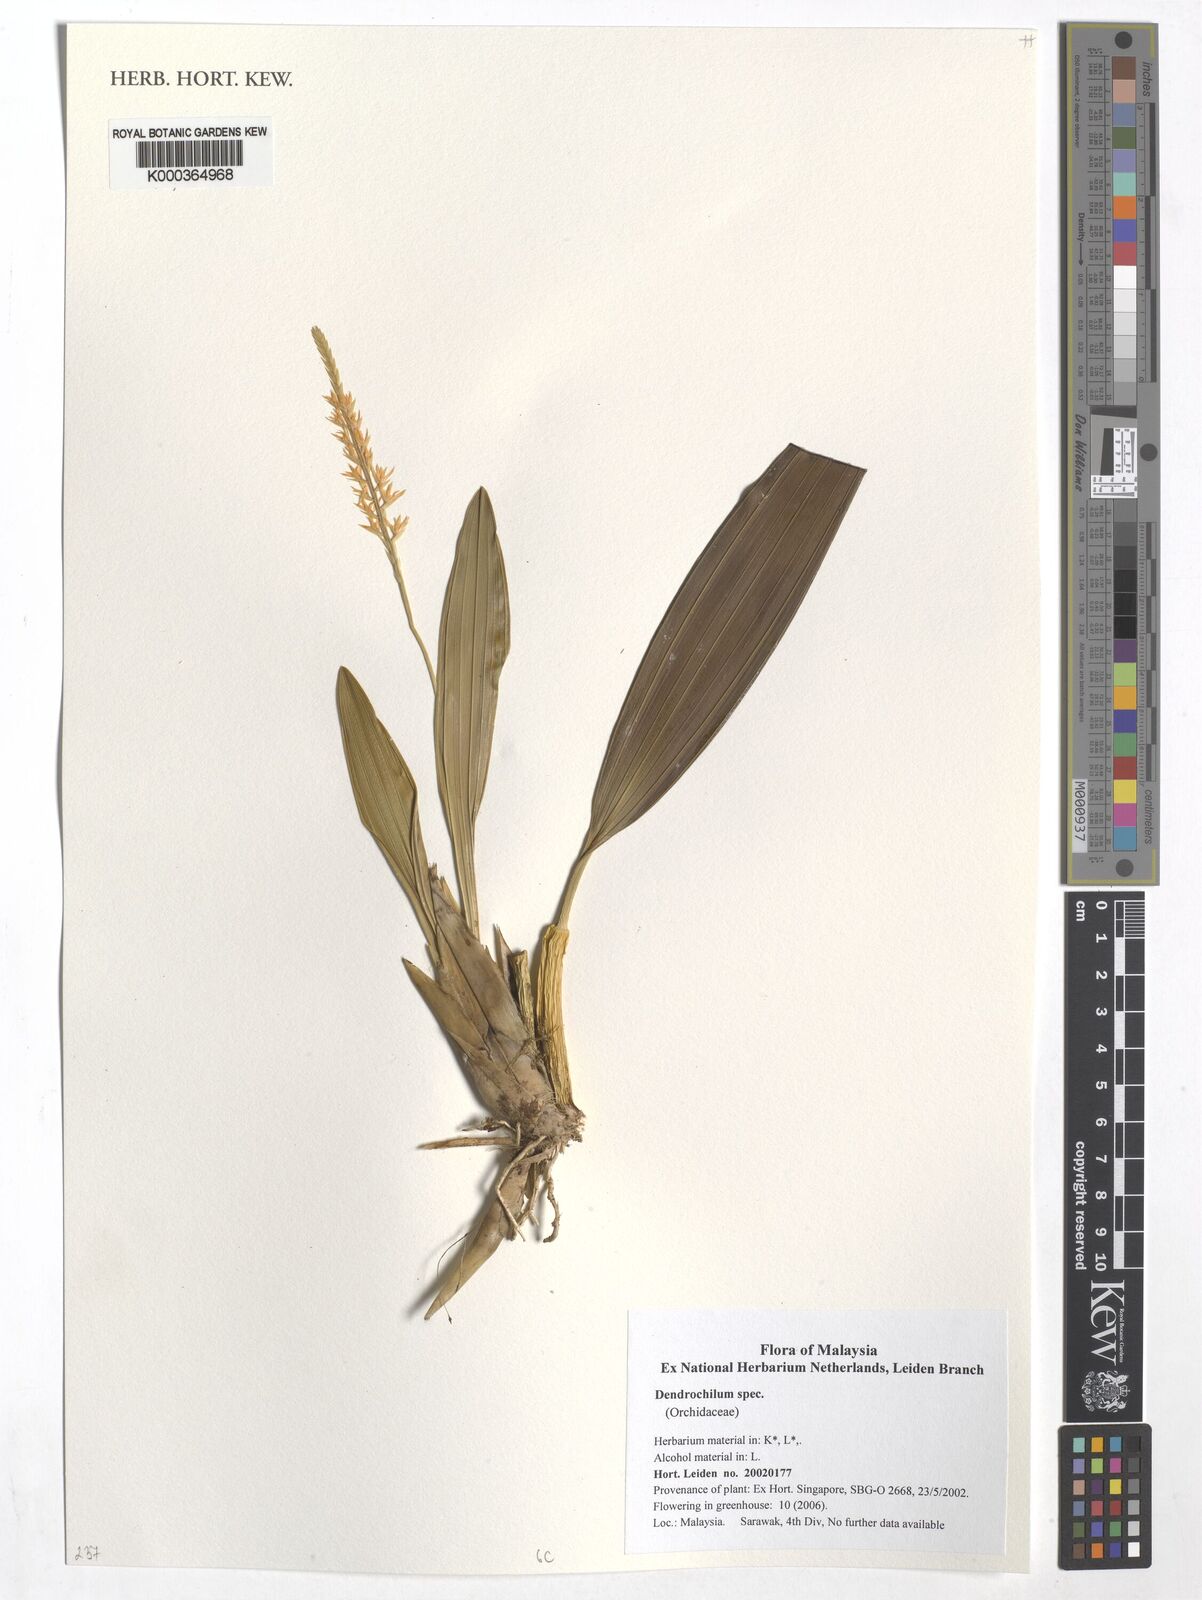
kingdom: Plantae
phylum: Tracheophyta
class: Liliopsida
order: Asparagales
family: Orchidaceae
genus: Coelogyne
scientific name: Coelogyne
